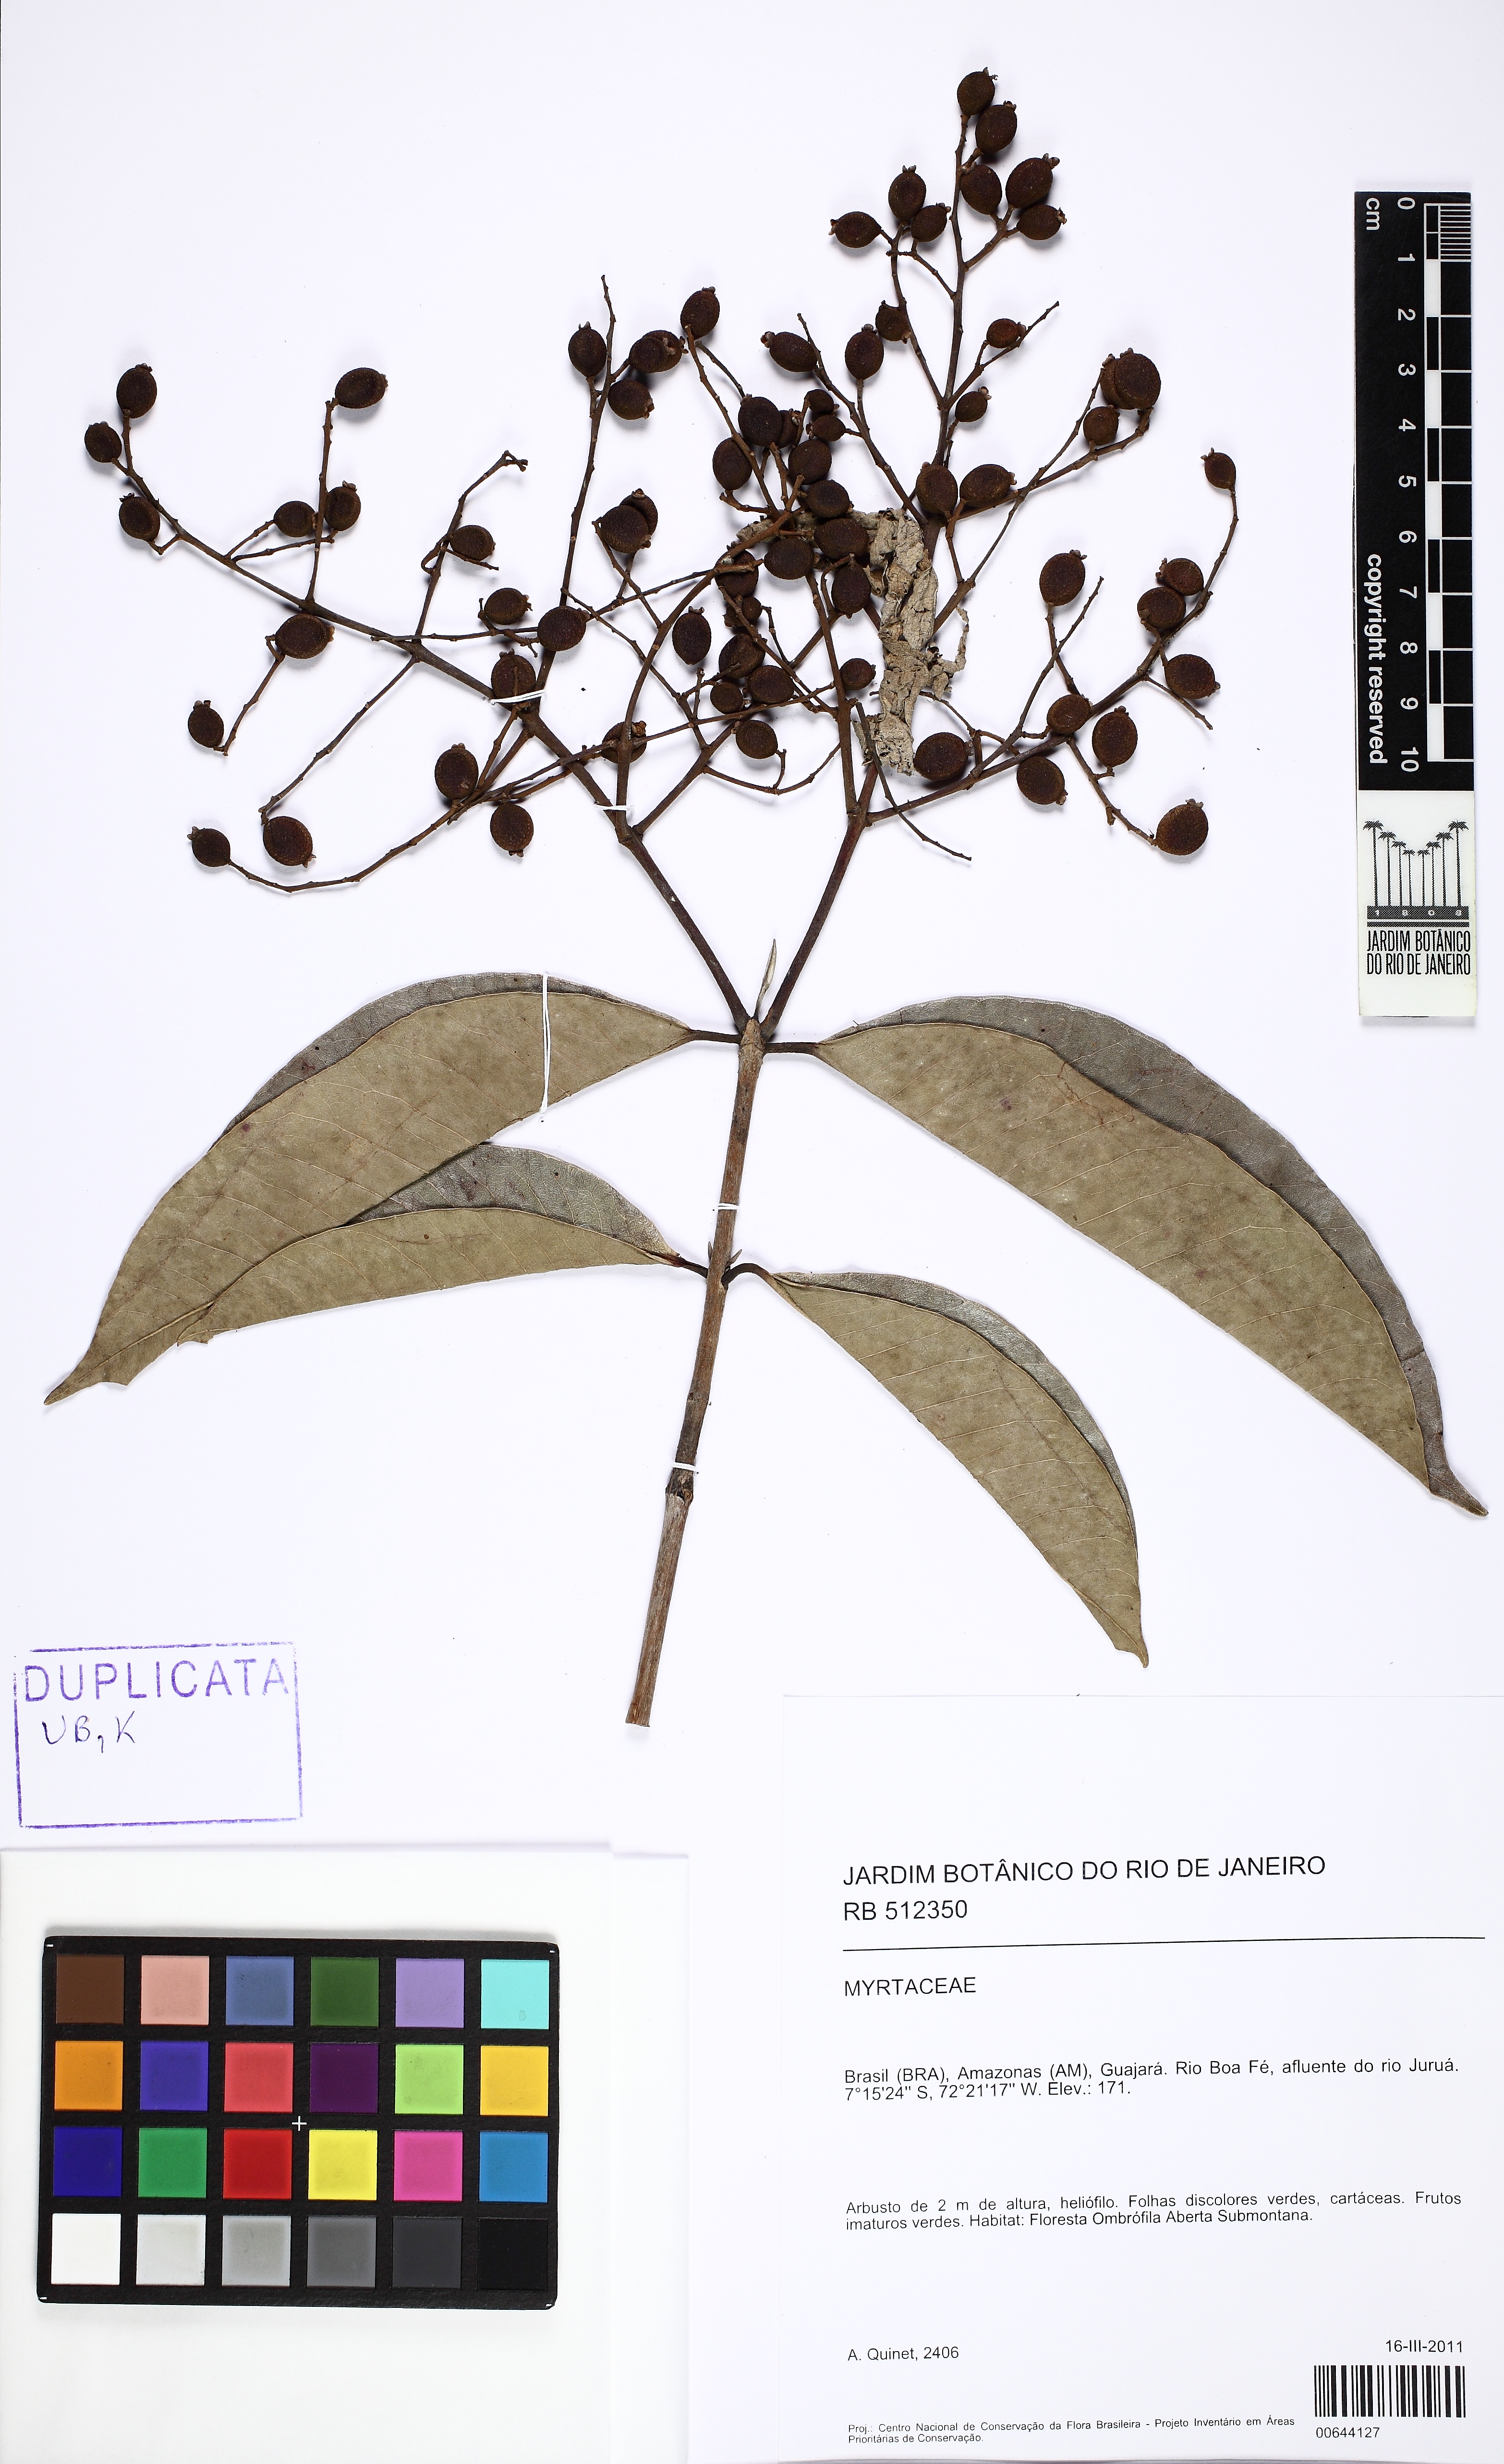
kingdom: Plantae
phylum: Tracheophyta
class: Magnoliopsida
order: Myrtales
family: Myrtaceae
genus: Myrcia
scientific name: Myrcia splendens
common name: Surinam cherry
